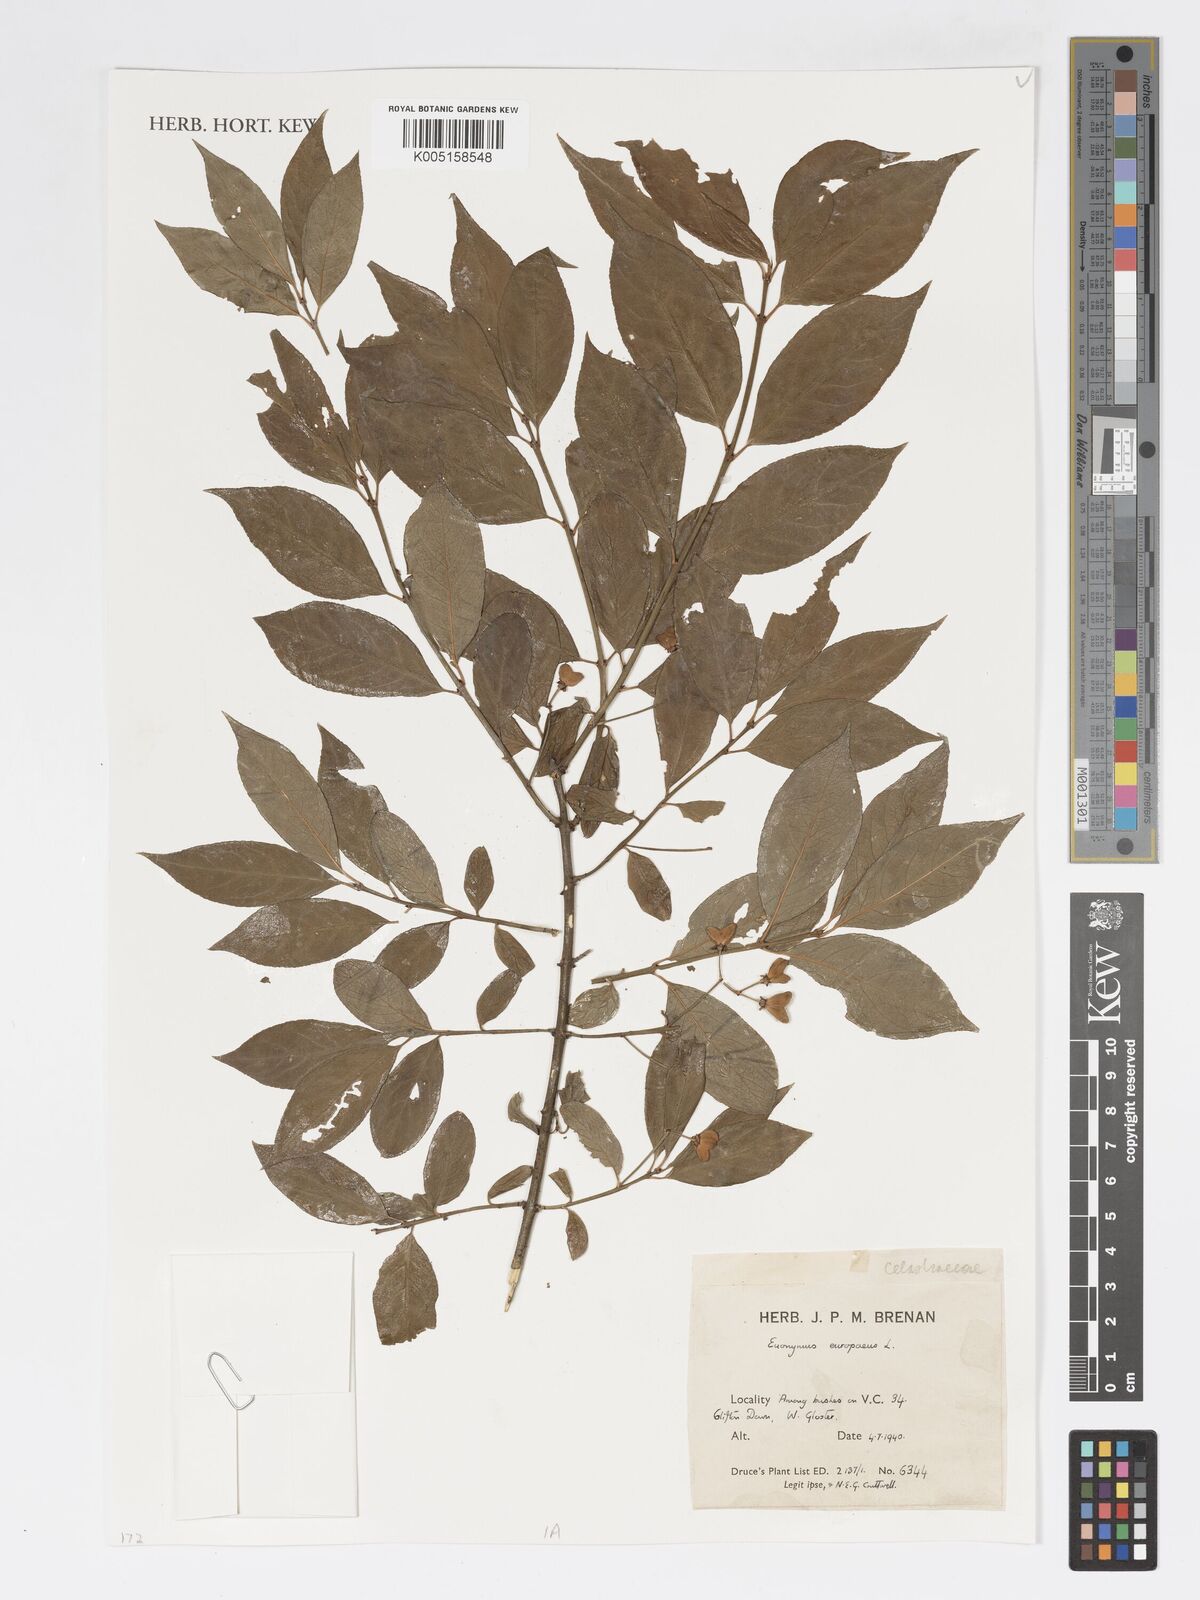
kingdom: Plantae
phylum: Tracheophyta
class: Magnoliopsida
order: Celastrales
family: Celastraceae
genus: Euonymus
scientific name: Euonymus europaeus
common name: Spindle
